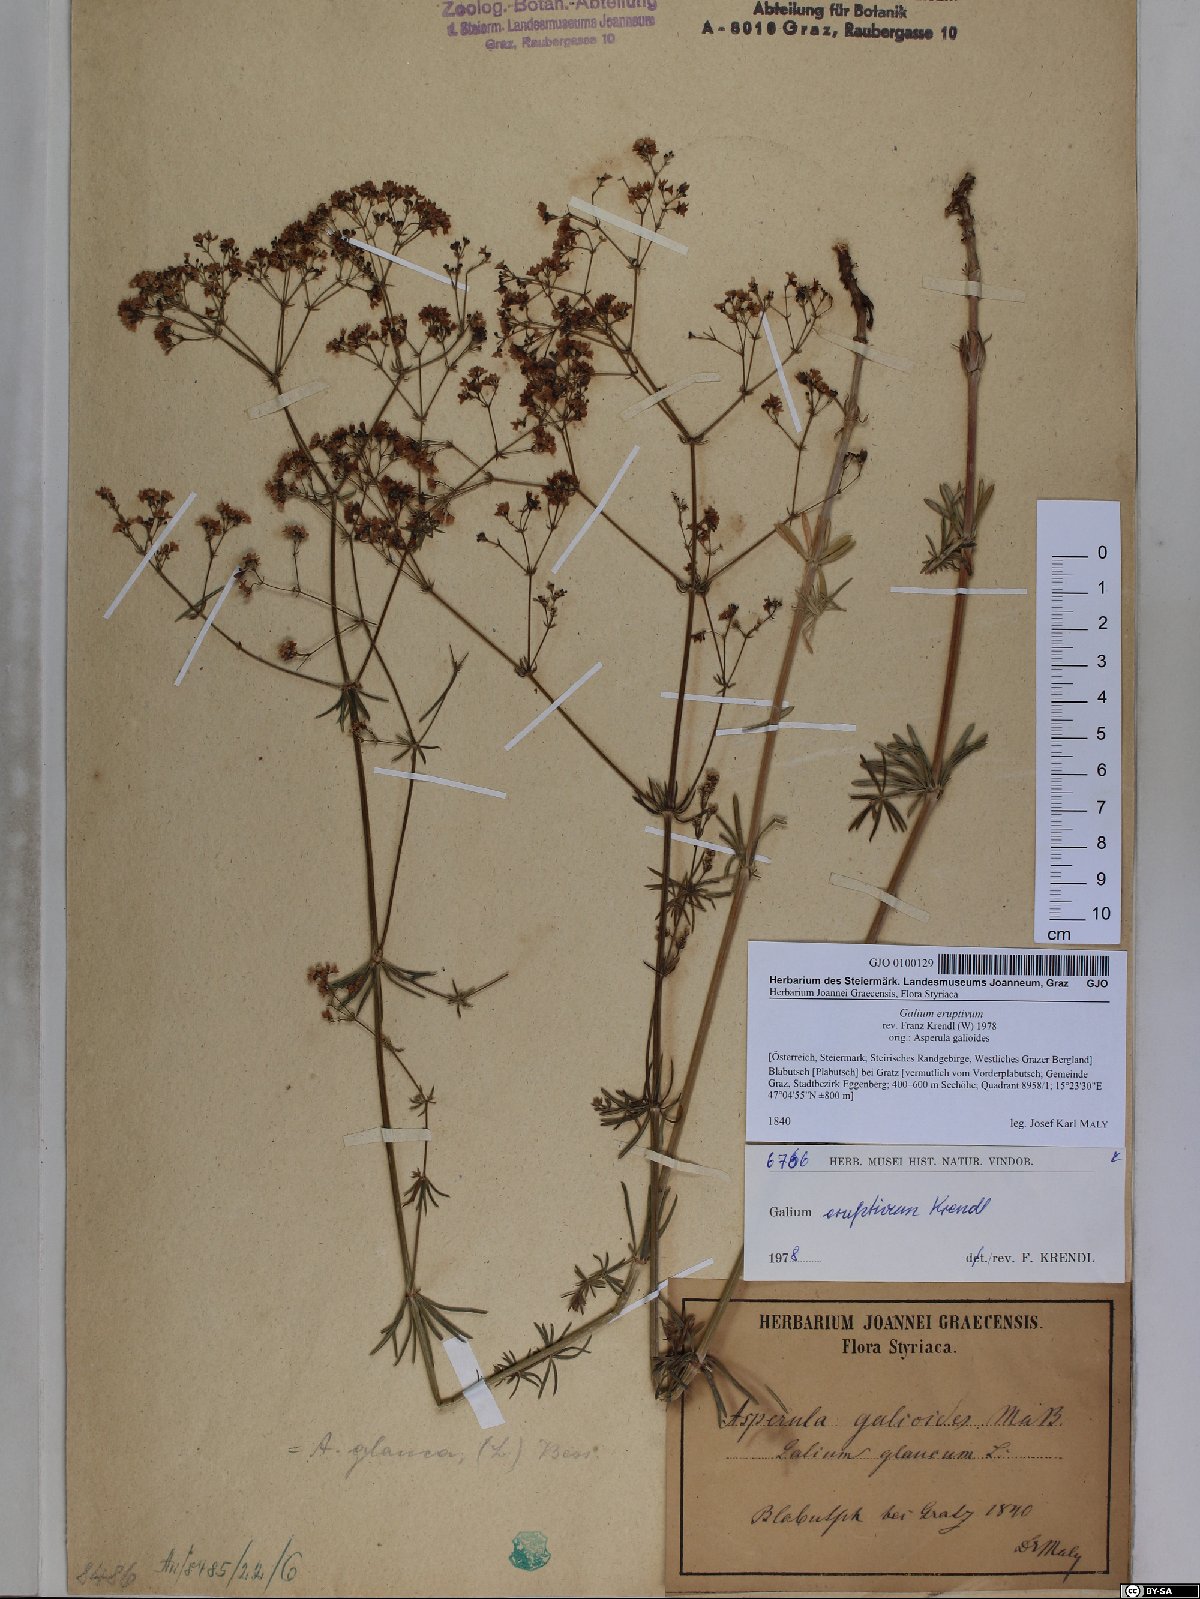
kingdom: Plantae
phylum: Tracheophyta
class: Magnoliopsida
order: Gentianales
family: Rubiaceae
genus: Galium
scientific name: Galium eruptivum
